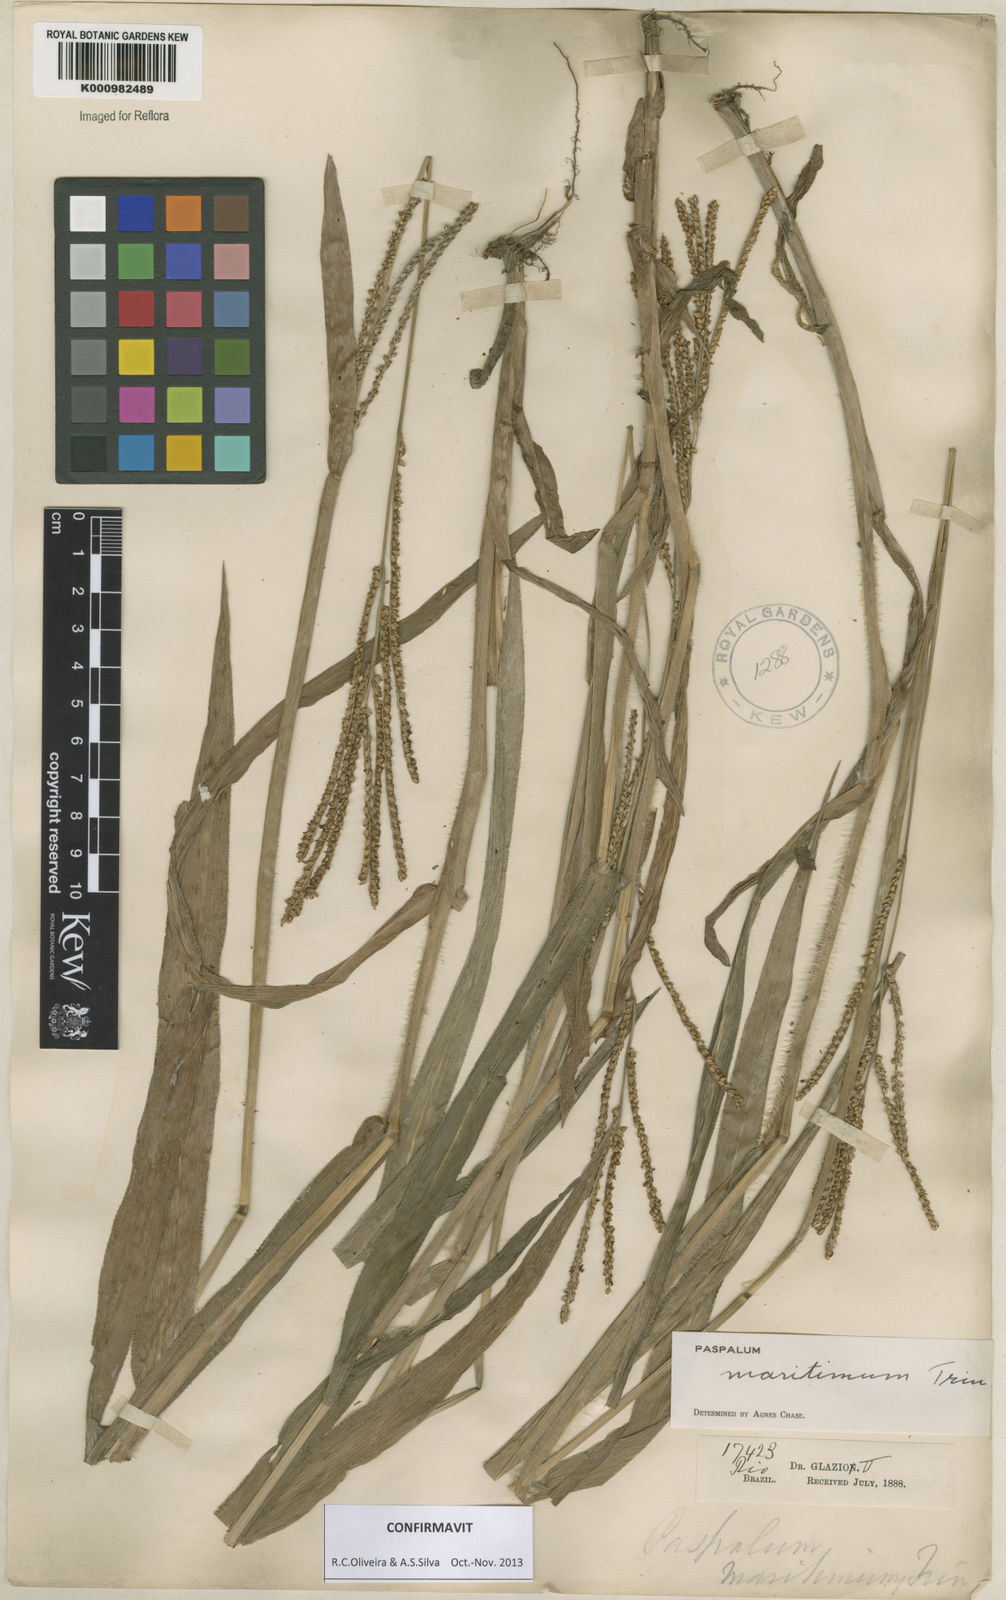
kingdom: Plantae
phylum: Tracheophyta
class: Liliopsida
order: Poales
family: Poaceae
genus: Paspalum
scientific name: Paspalum maritimum
